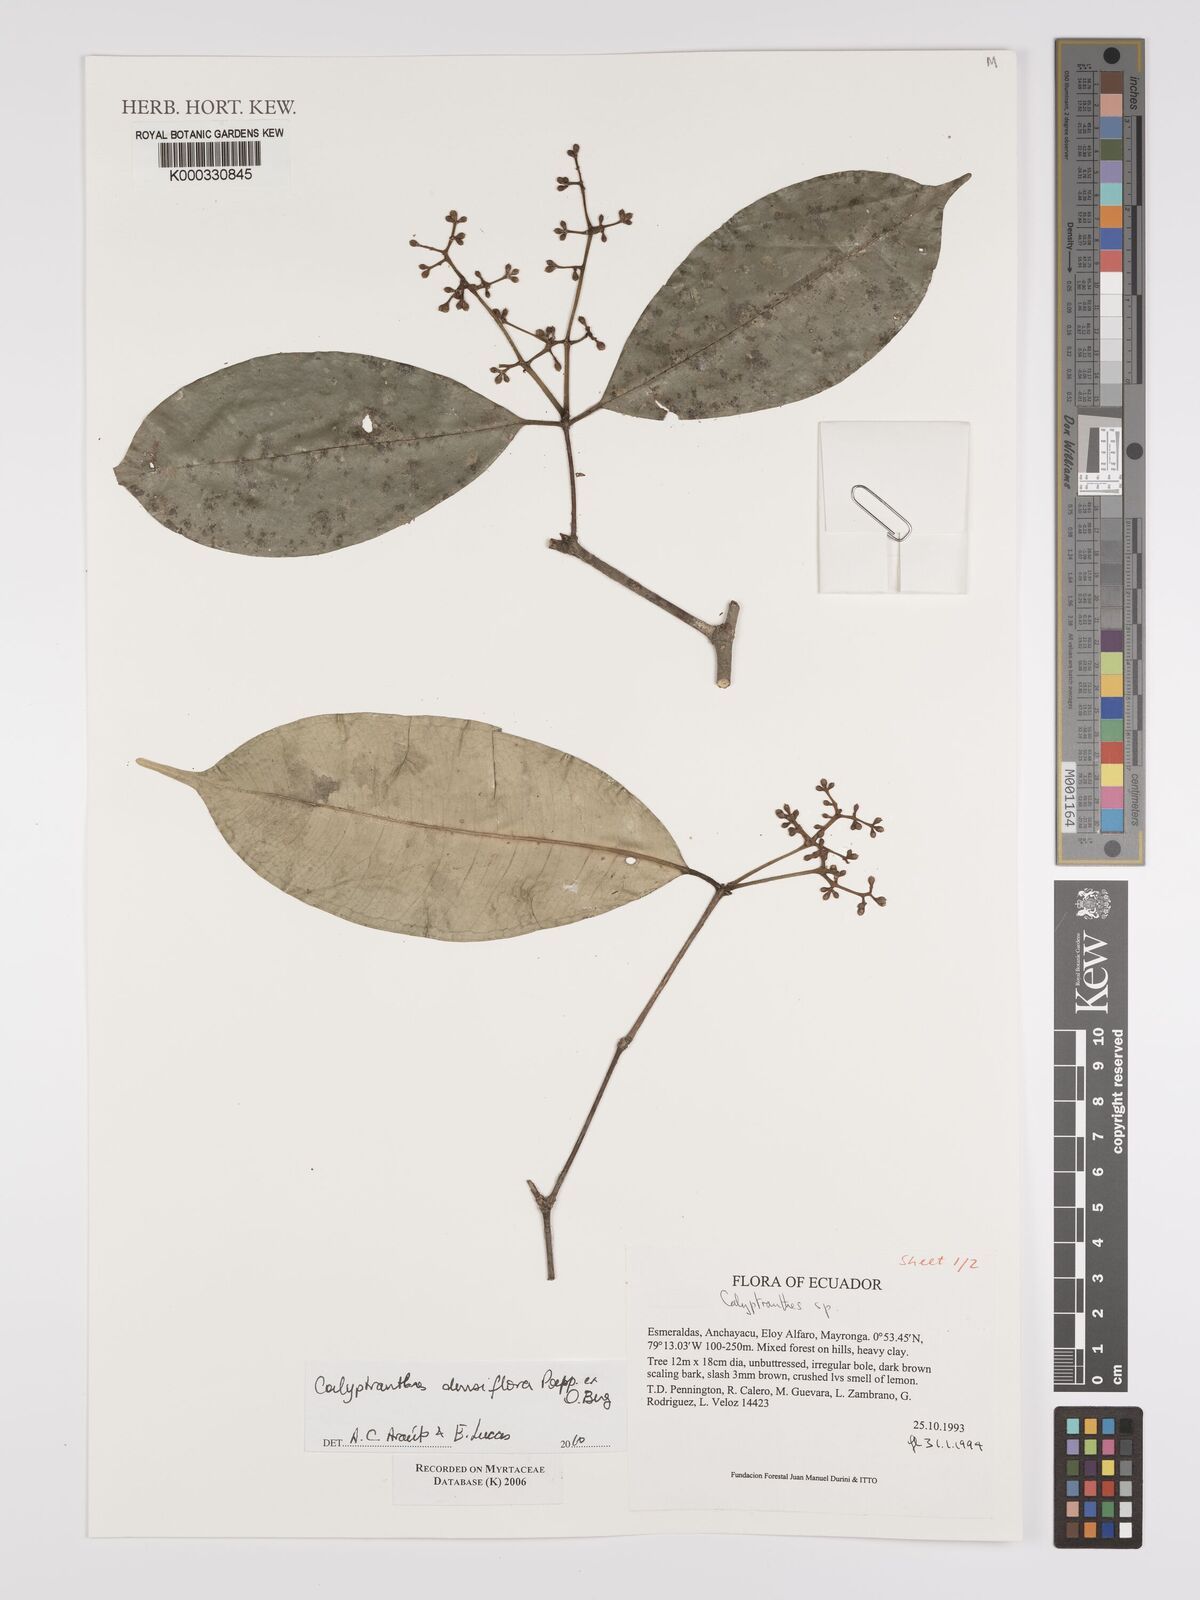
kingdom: Plantae
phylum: Tracheophyta
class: Magnoliopsida
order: Myrtales
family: Myrtaceae
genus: Calyptranthes
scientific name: Calyptranthes
